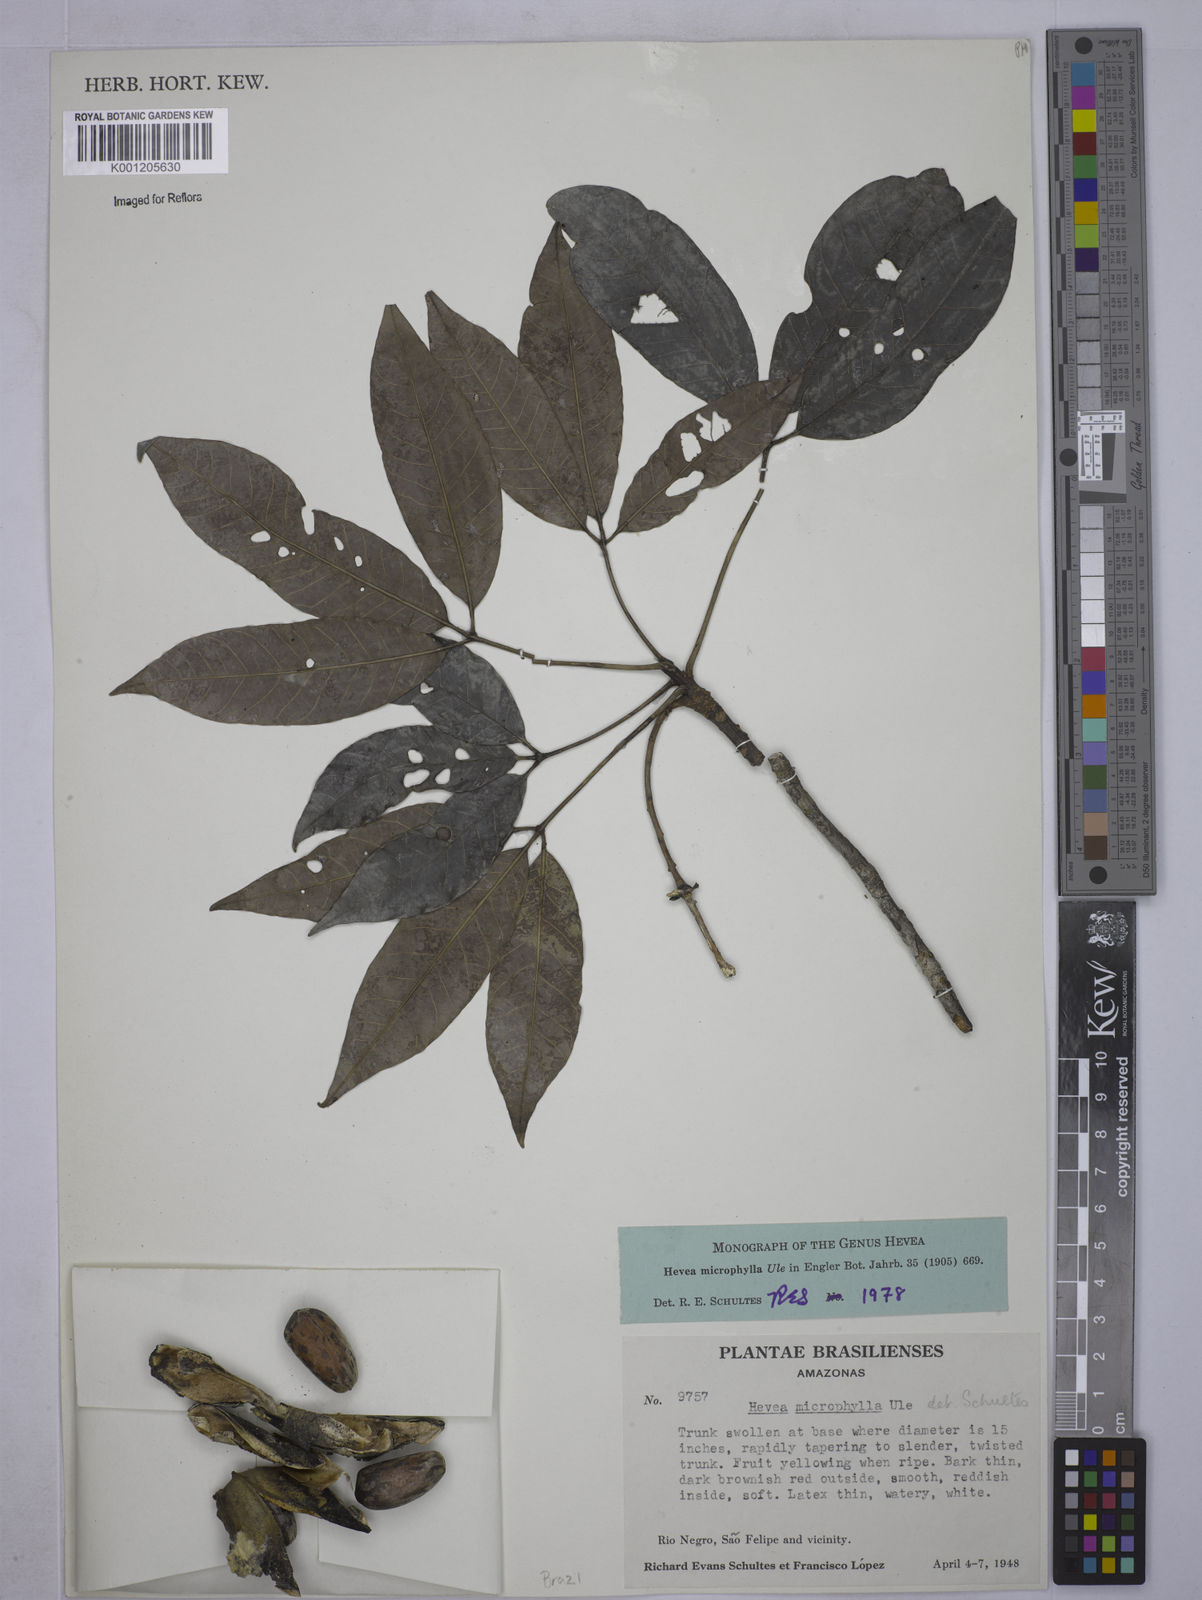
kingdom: Plantae
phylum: Tracheophyta
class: Magnoliopsida
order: Malpighiales
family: Euphorbiaceae
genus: Hevea
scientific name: Hevea microphylla
